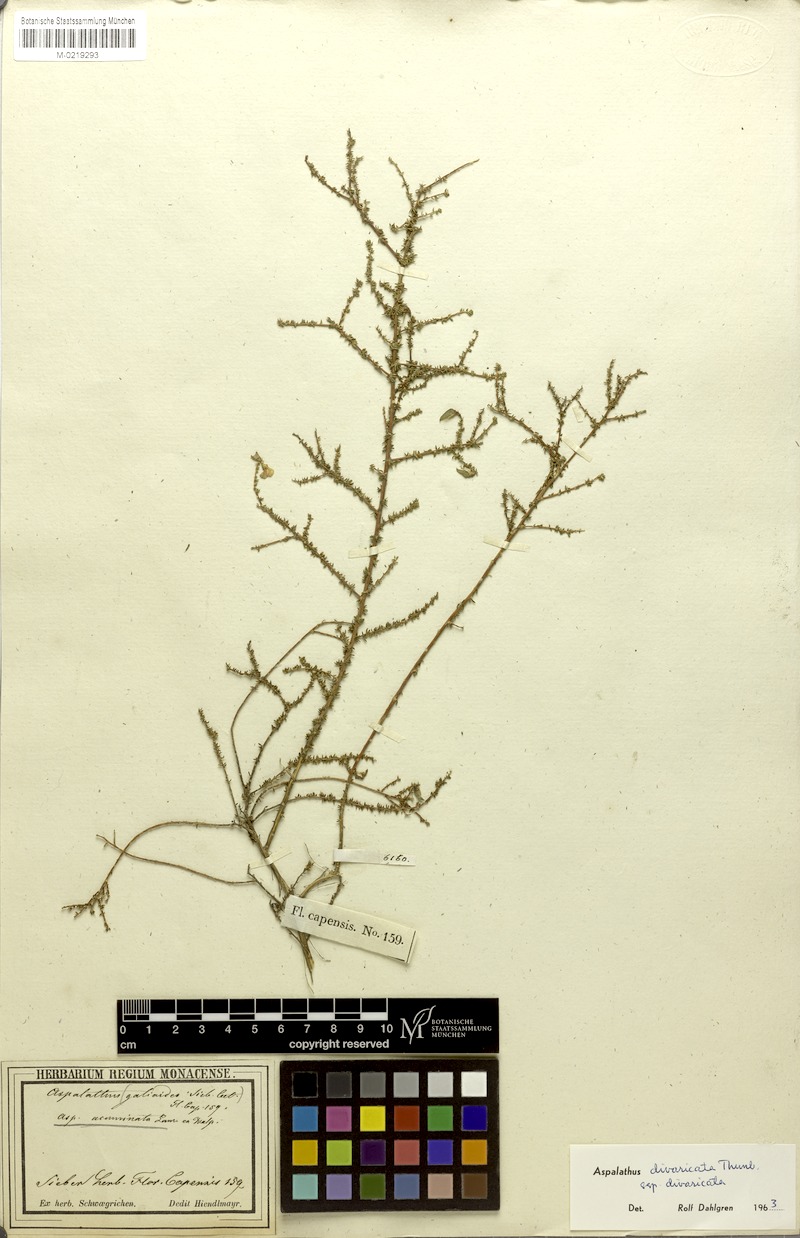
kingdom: Plantae
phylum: Tracheophyta
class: Magnoliopsida
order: Fabales
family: Fabaceae
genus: Aspalathus
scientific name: Aspalathus divaricata
